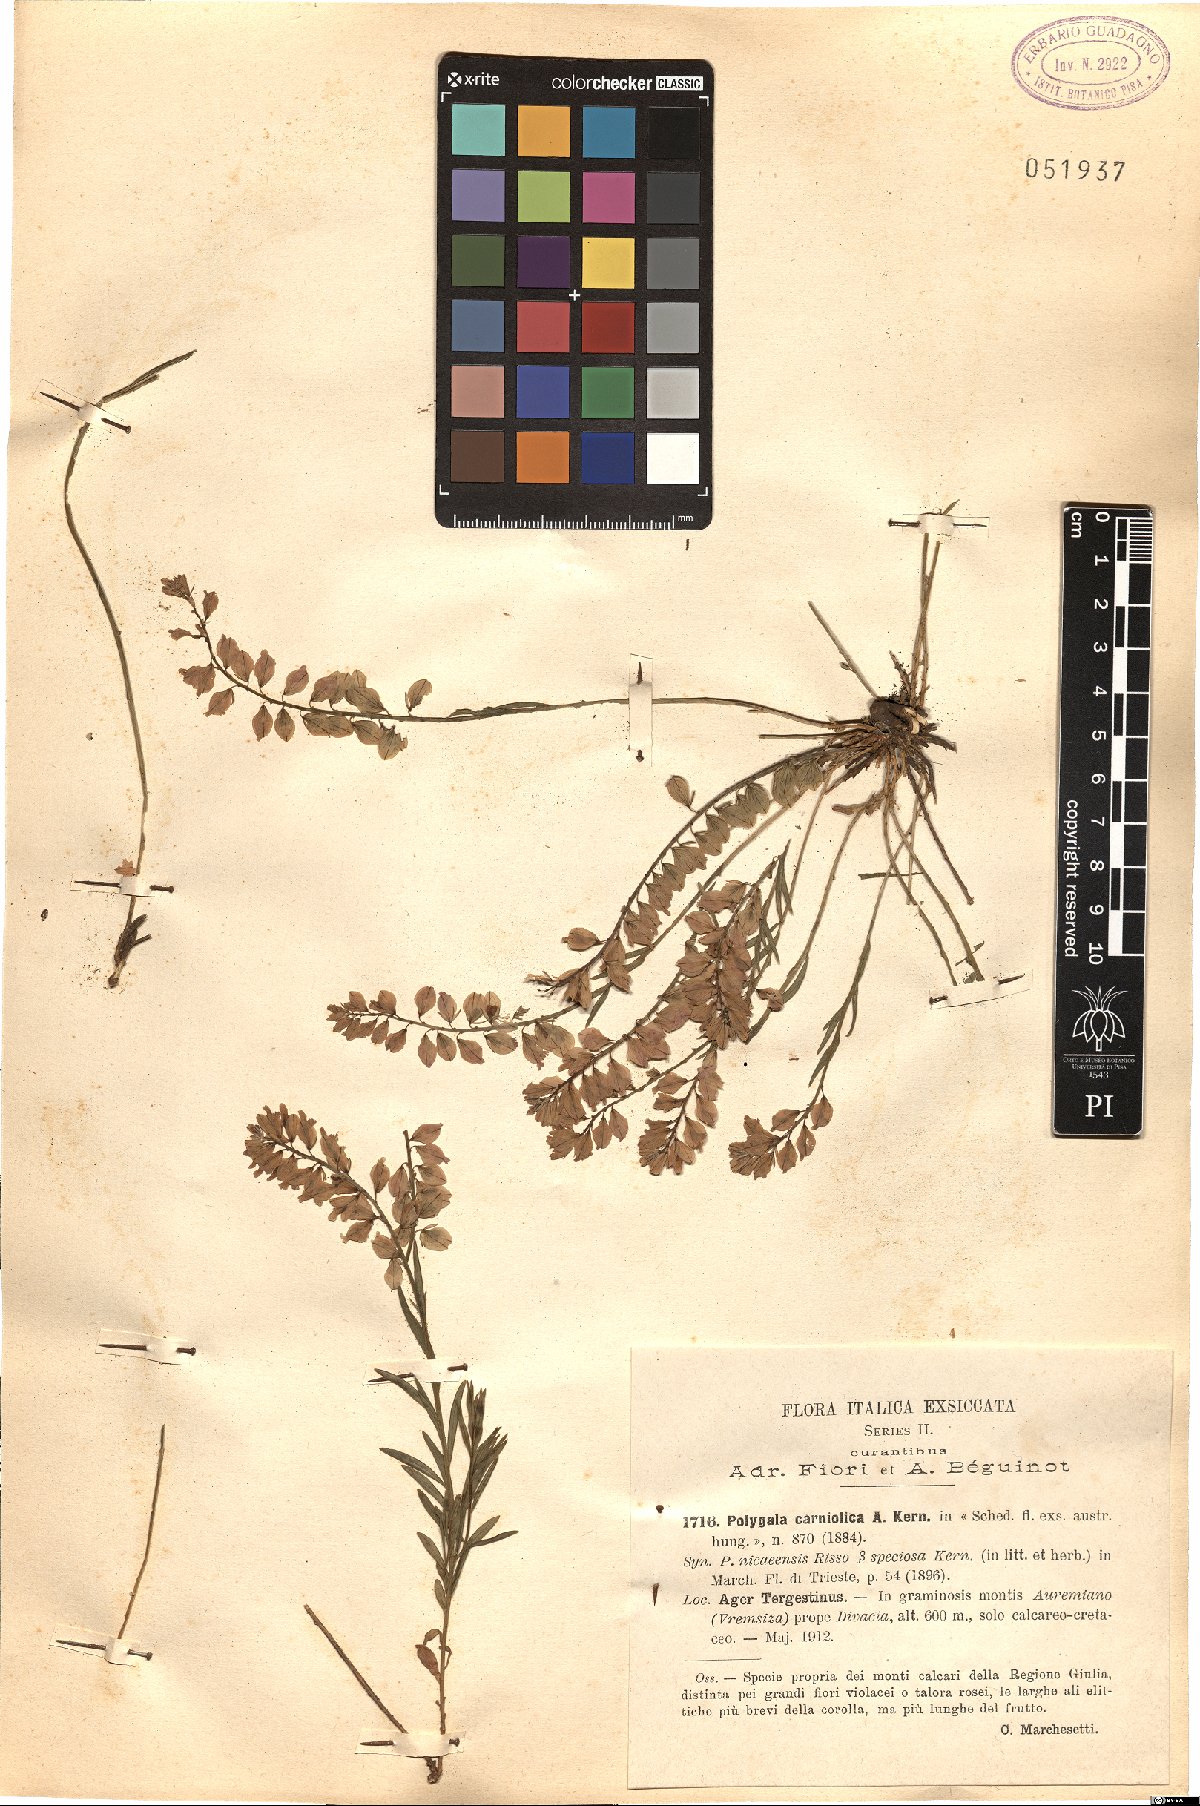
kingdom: Plantae
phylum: Tracheophyta
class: Magnoliopsida
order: Fabales
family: Polygalaceae
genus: Polygala
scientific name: Polygala forojulensis
